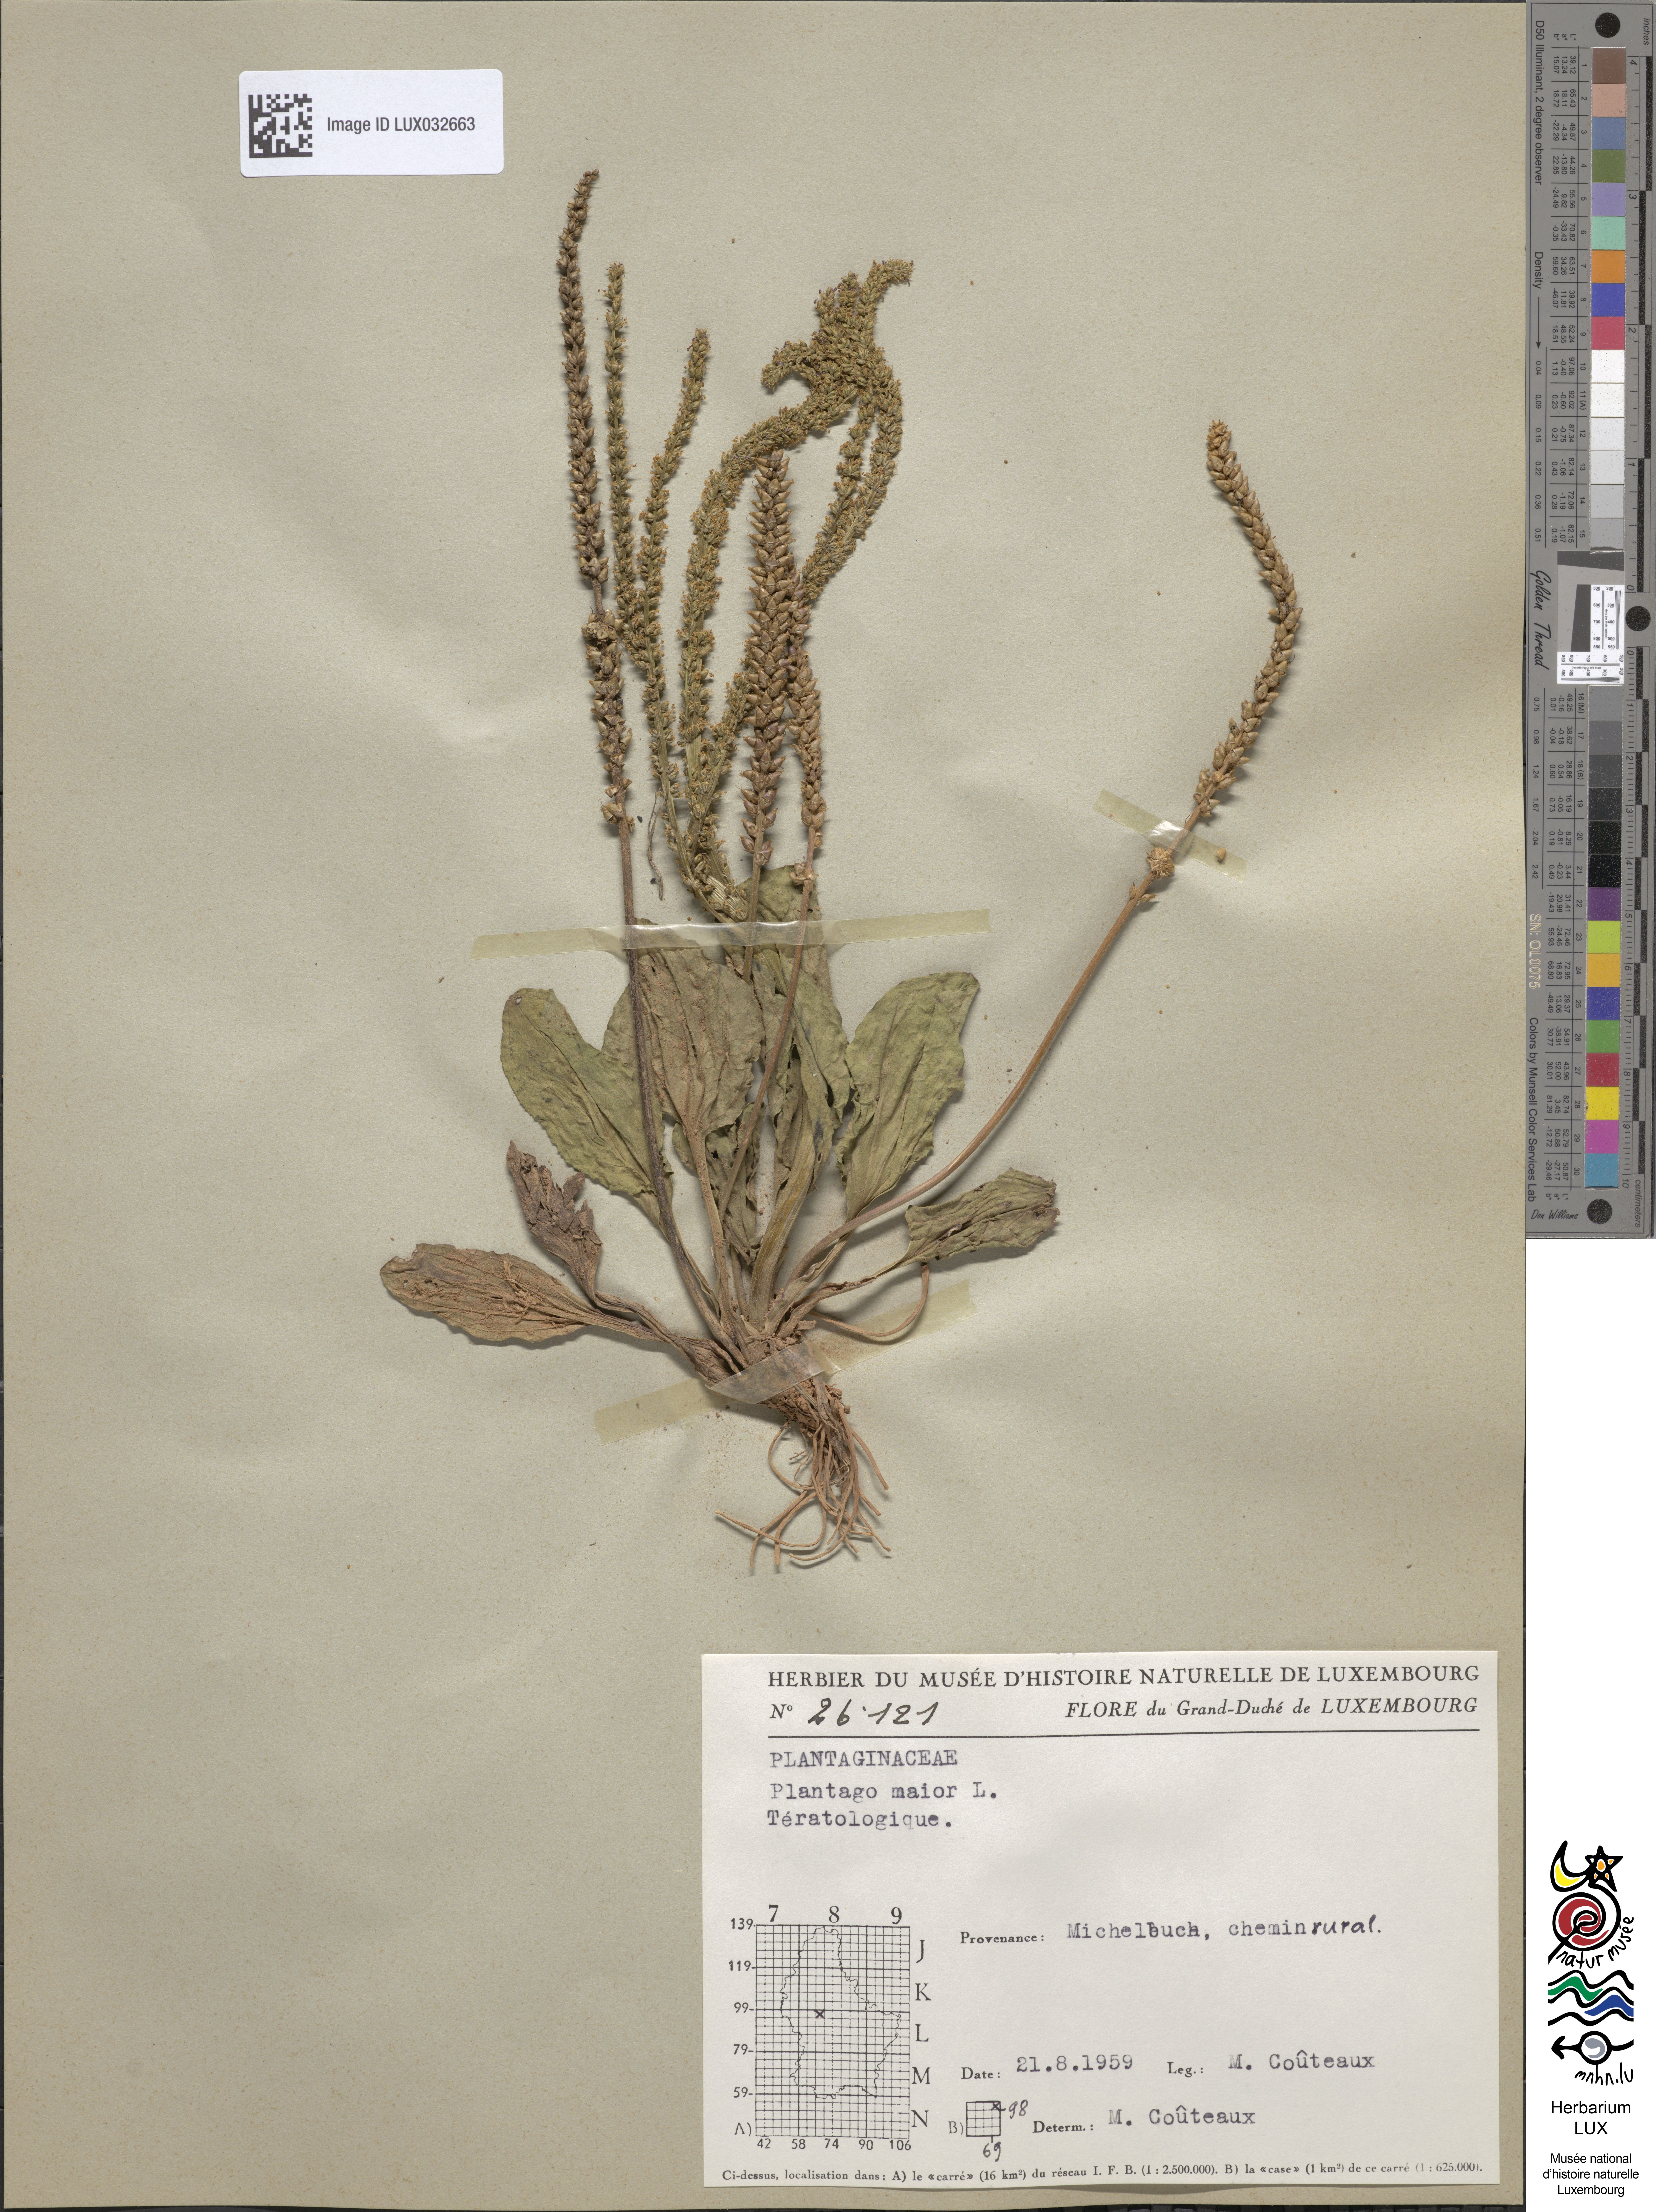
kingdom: Plantae
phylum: Tracheophyta
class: Magnoliopsida
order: Lamiales
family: Plantaginaceae
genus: Plantago
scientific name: Plantago major
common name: Common plantain
